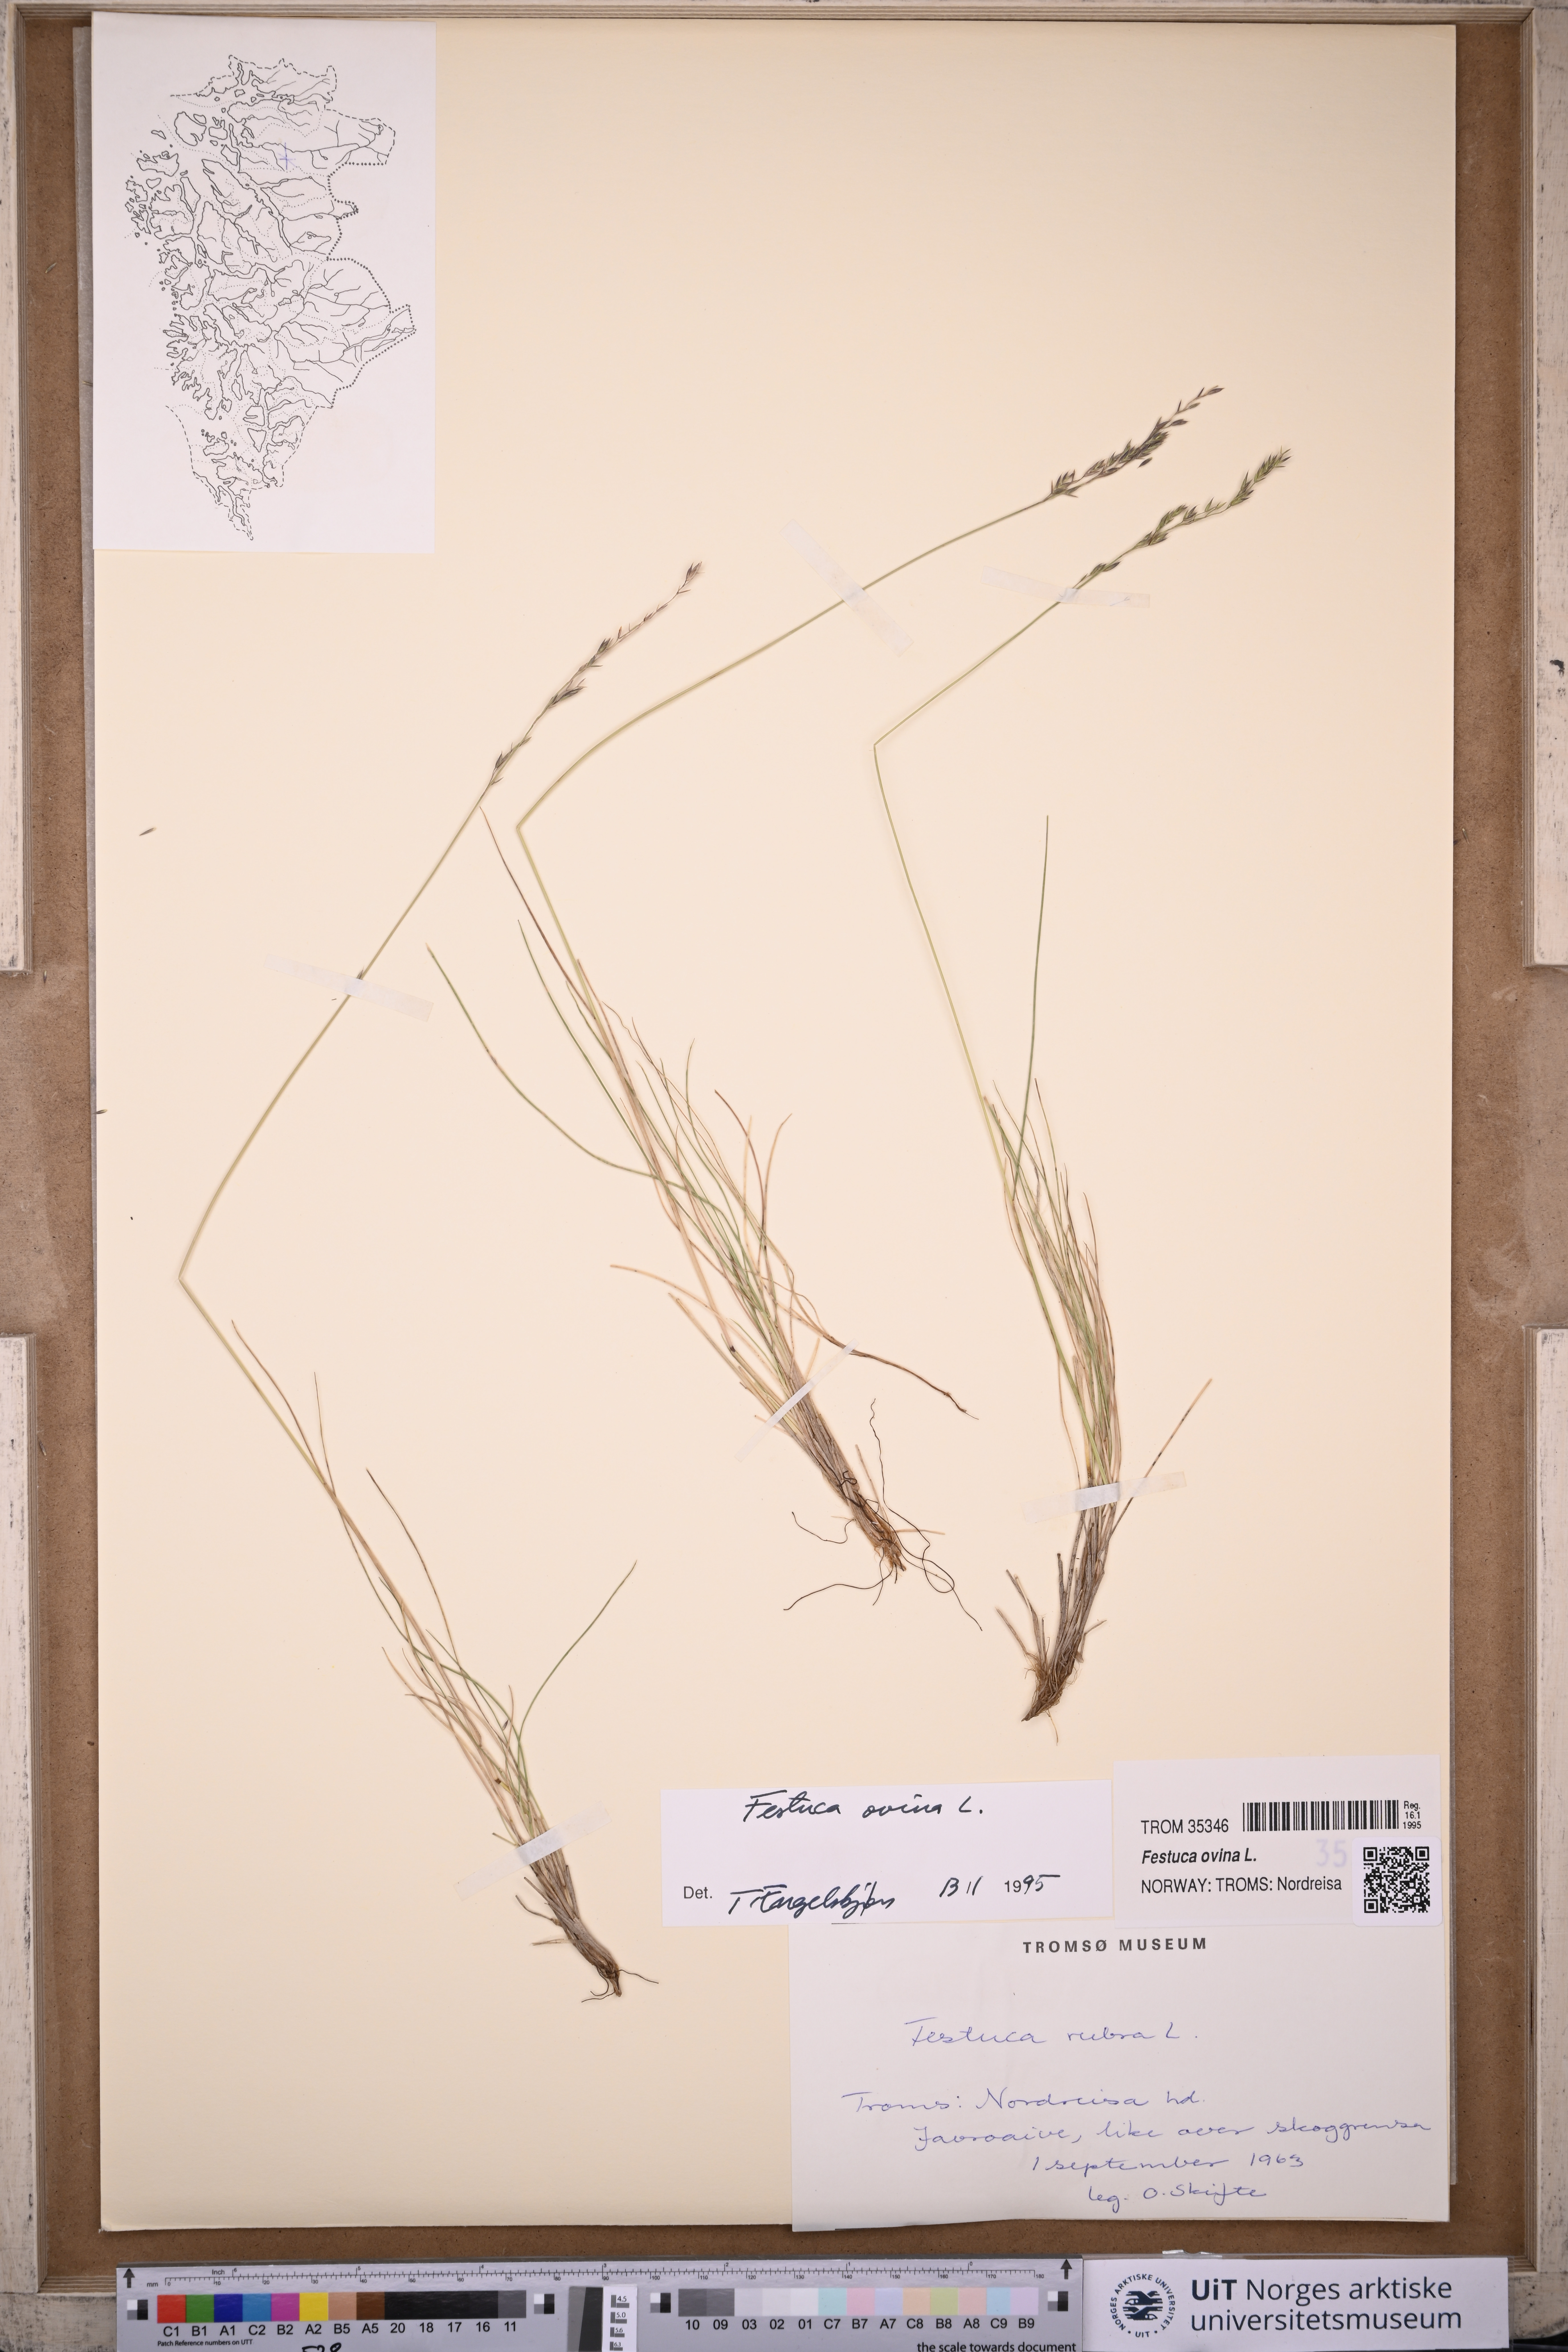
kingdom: Plantae
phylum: Tracheophyta
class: Liliopsida
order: Poales
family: Poaceae
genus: Festuca
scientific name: Festuca ovina
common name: Sheep fescue
